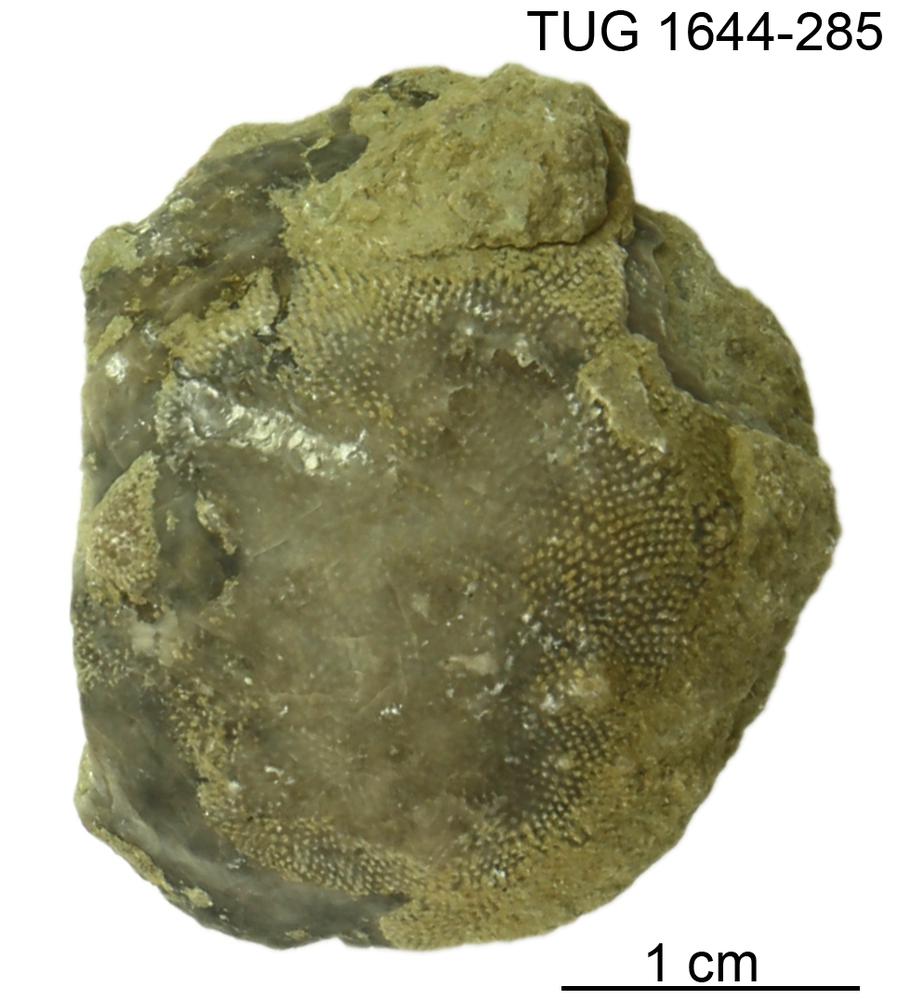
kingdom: Animalia
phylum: Bryozoa
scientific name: Bryozoa
